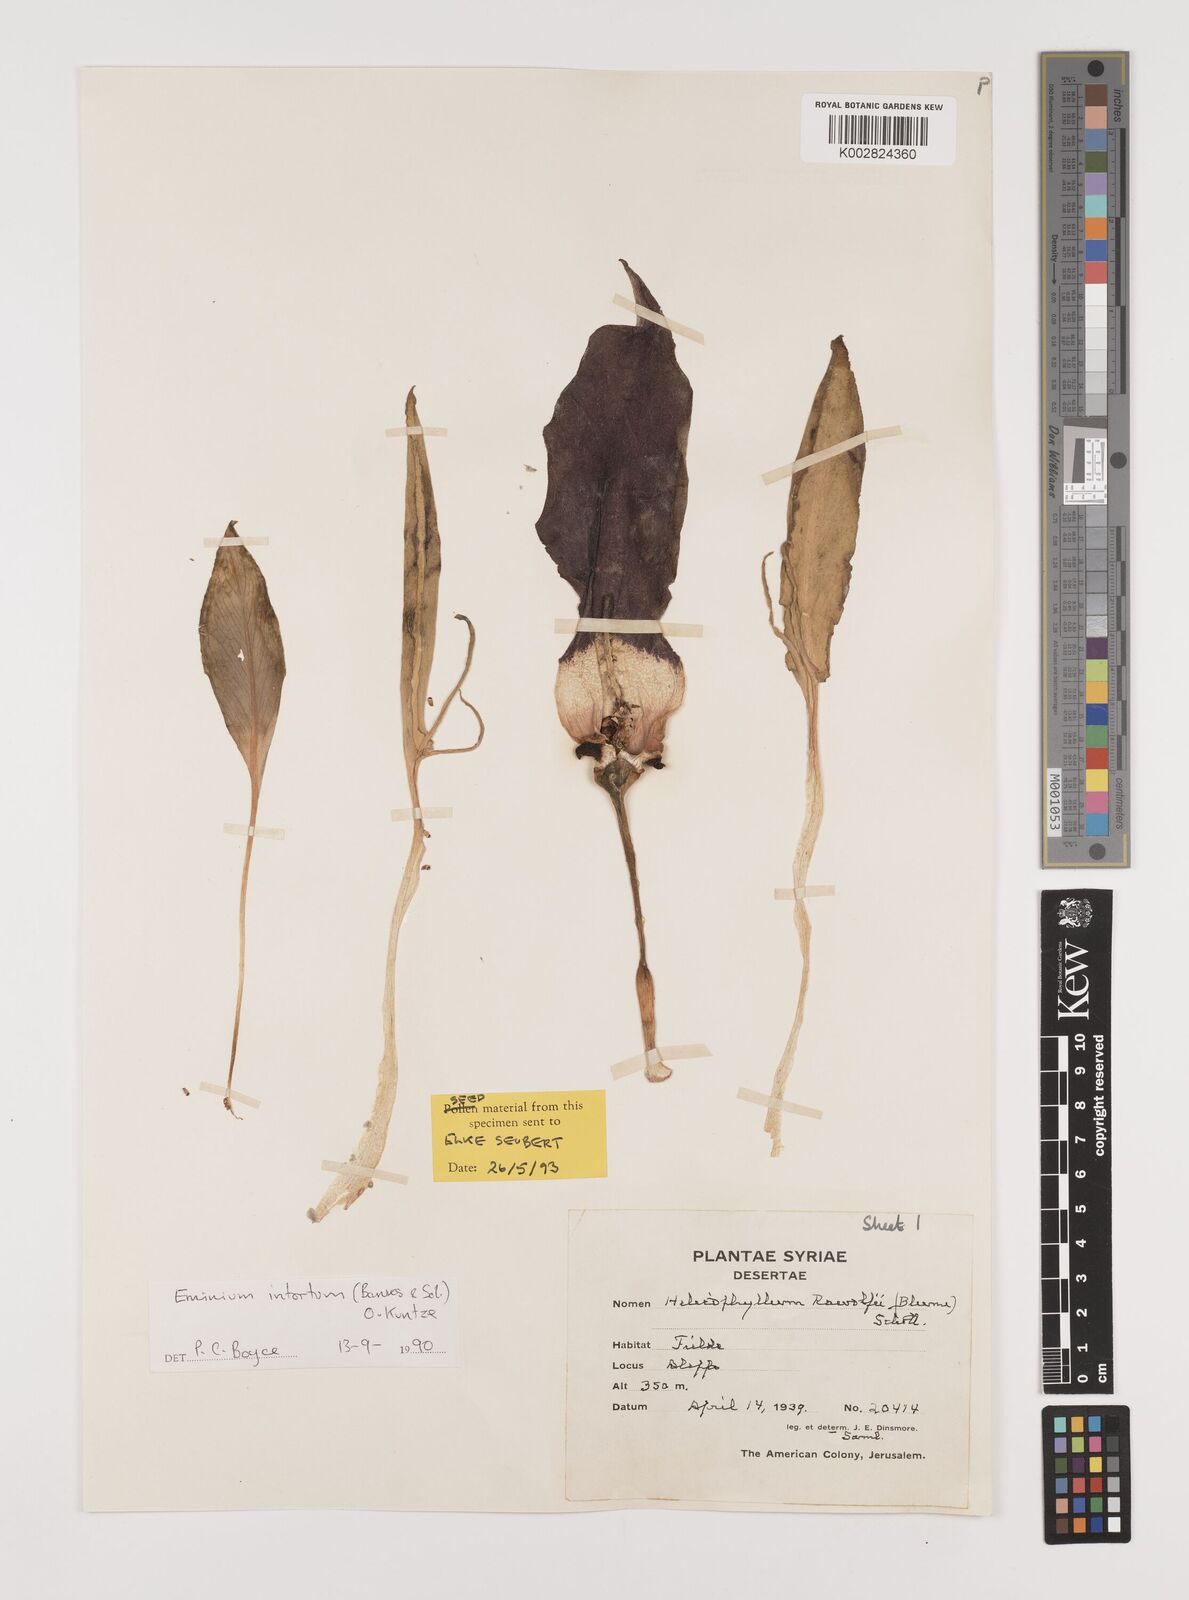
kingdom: Plantae
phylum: Tracheophyta
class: Liliopsida
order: Alismatales
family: Araceae
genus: Eminium
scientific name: Eminium intortum
